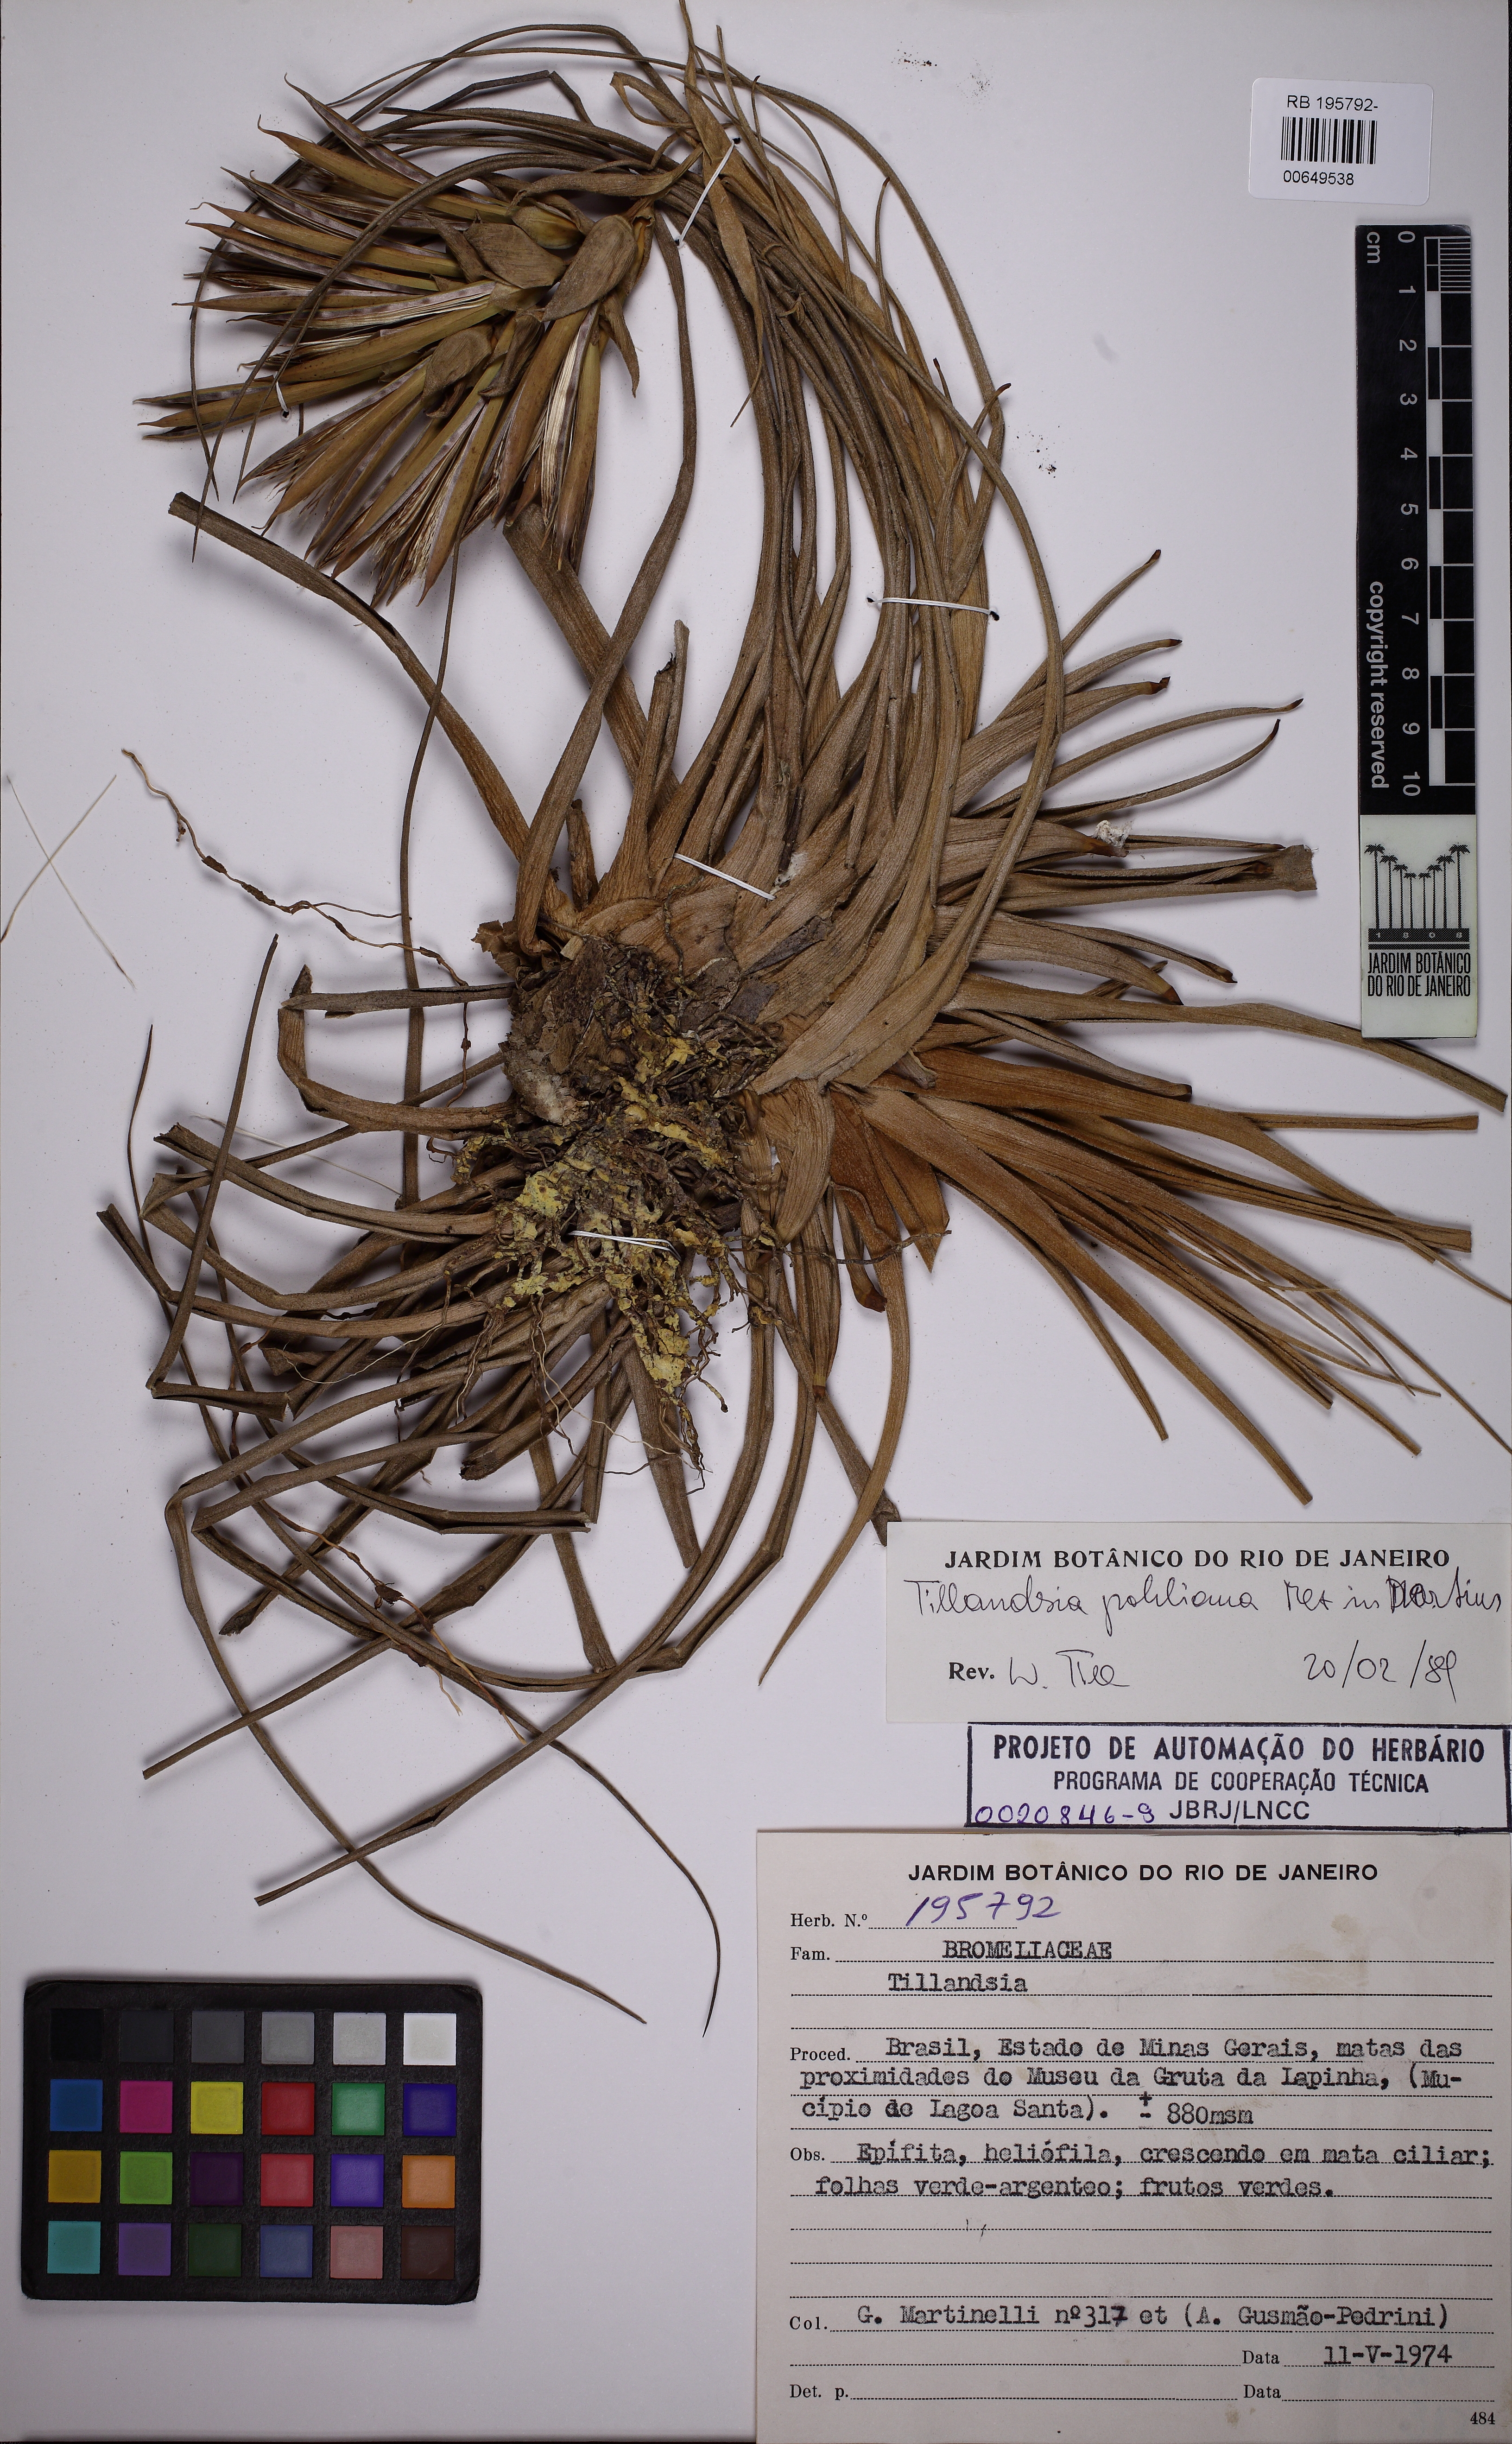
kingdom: Plantae
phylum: Tracheophyta
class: Liliopsida
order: Poales
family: Bromeliaceae
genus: Tillandsia
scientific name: Tillandsia pohliana
